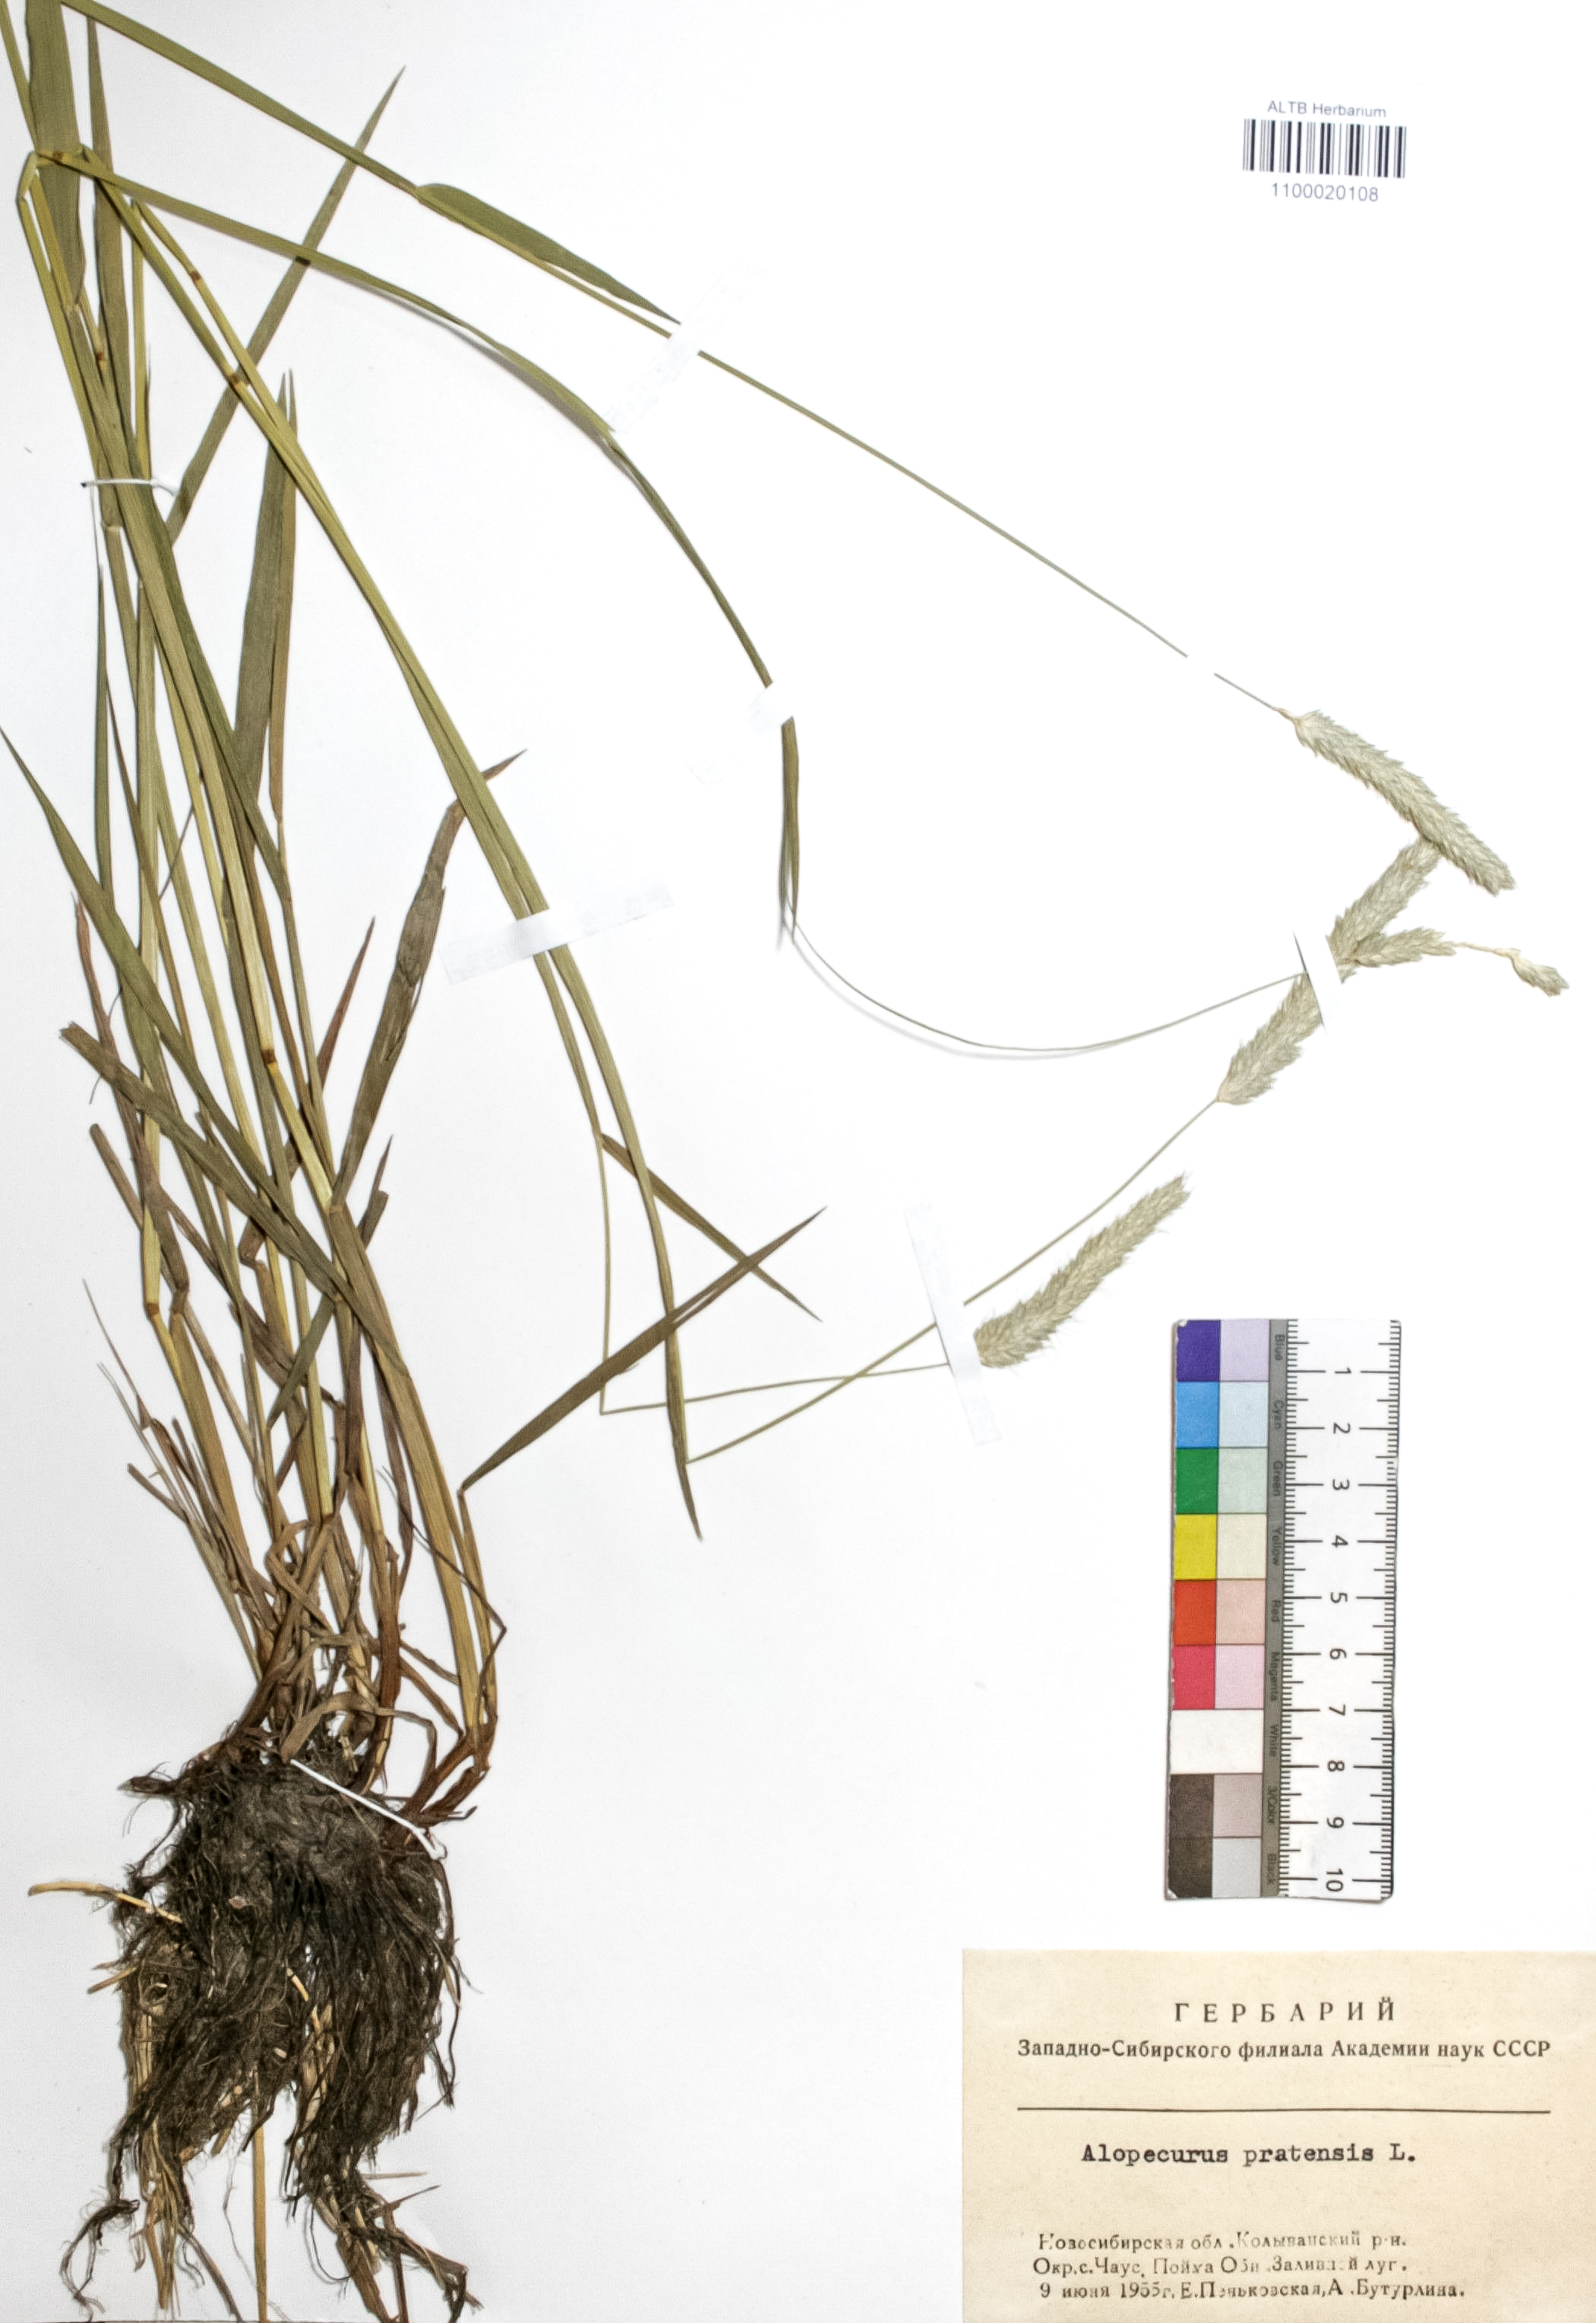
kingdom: Plantae
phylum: Tracheophyta
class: Liliopsida
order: Poales
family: Poaceae
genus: Alopecurus
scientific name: Alopecurus pratensis
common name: Meadow foxtail
